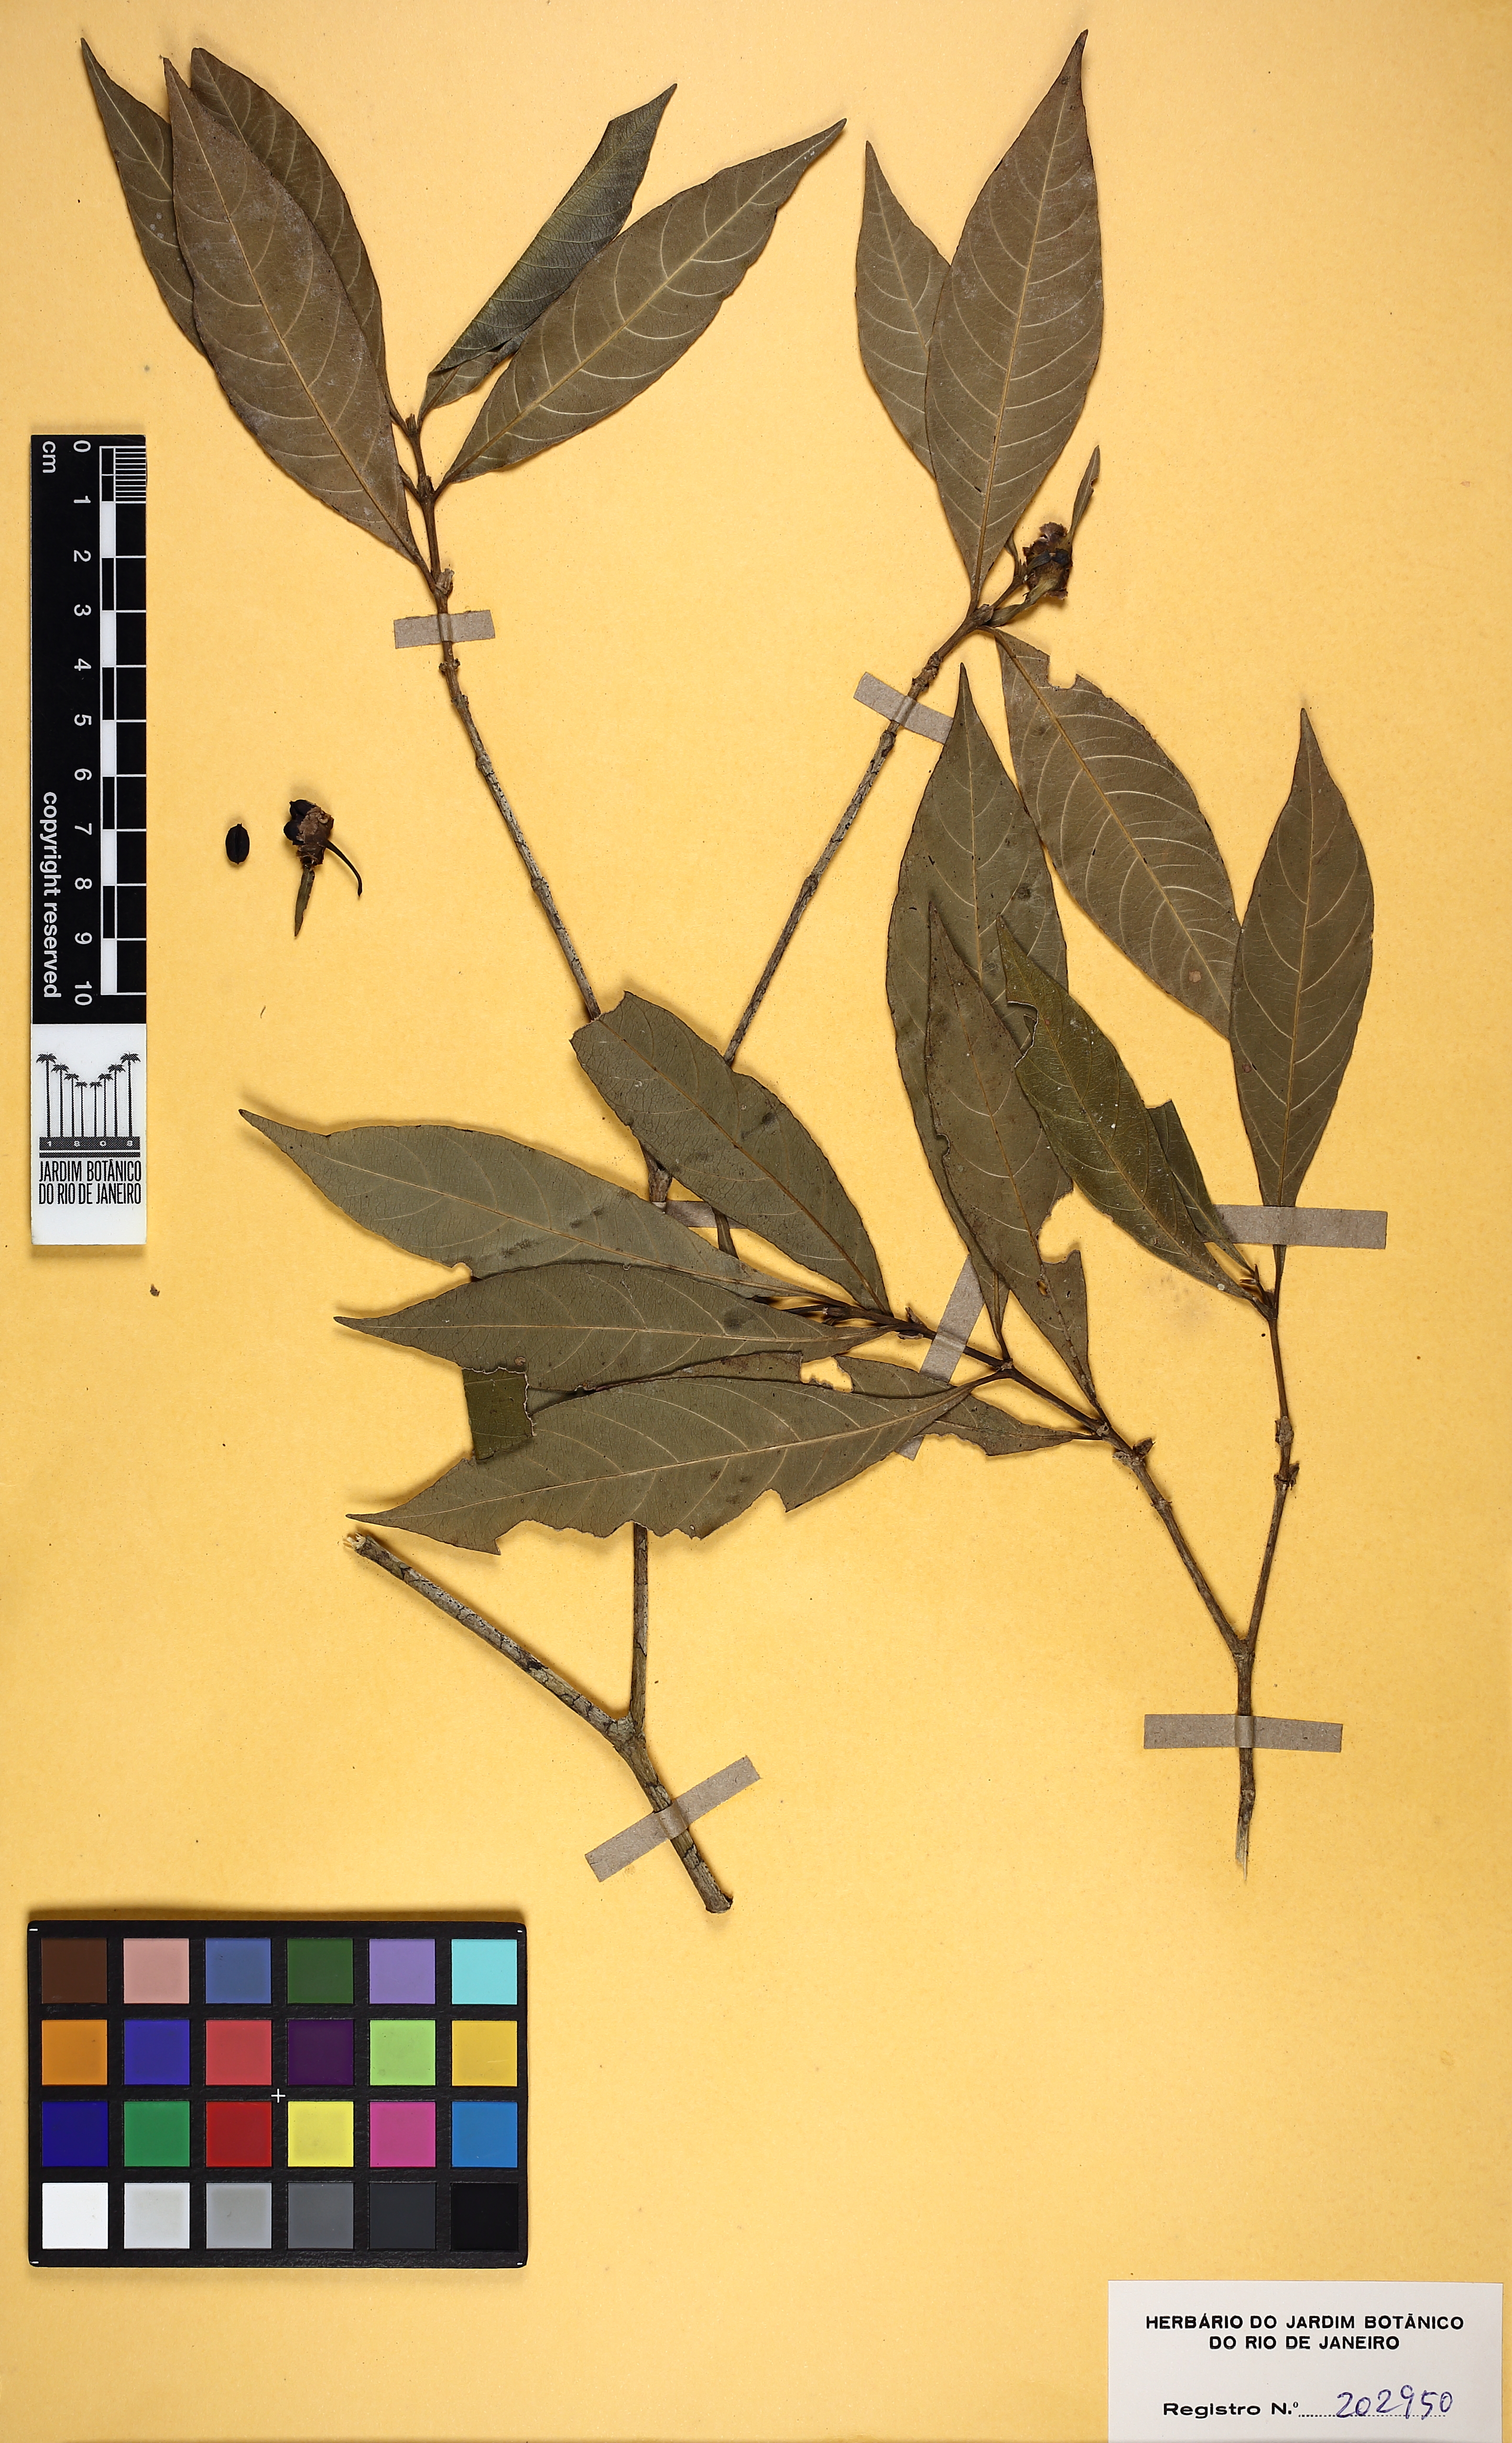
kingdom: Plantae
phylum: Tracheophyta
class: Magnoliopsida
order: Gentianales
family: Rubiaceae
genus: Carapichea
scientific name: Carapichea pacimonica
